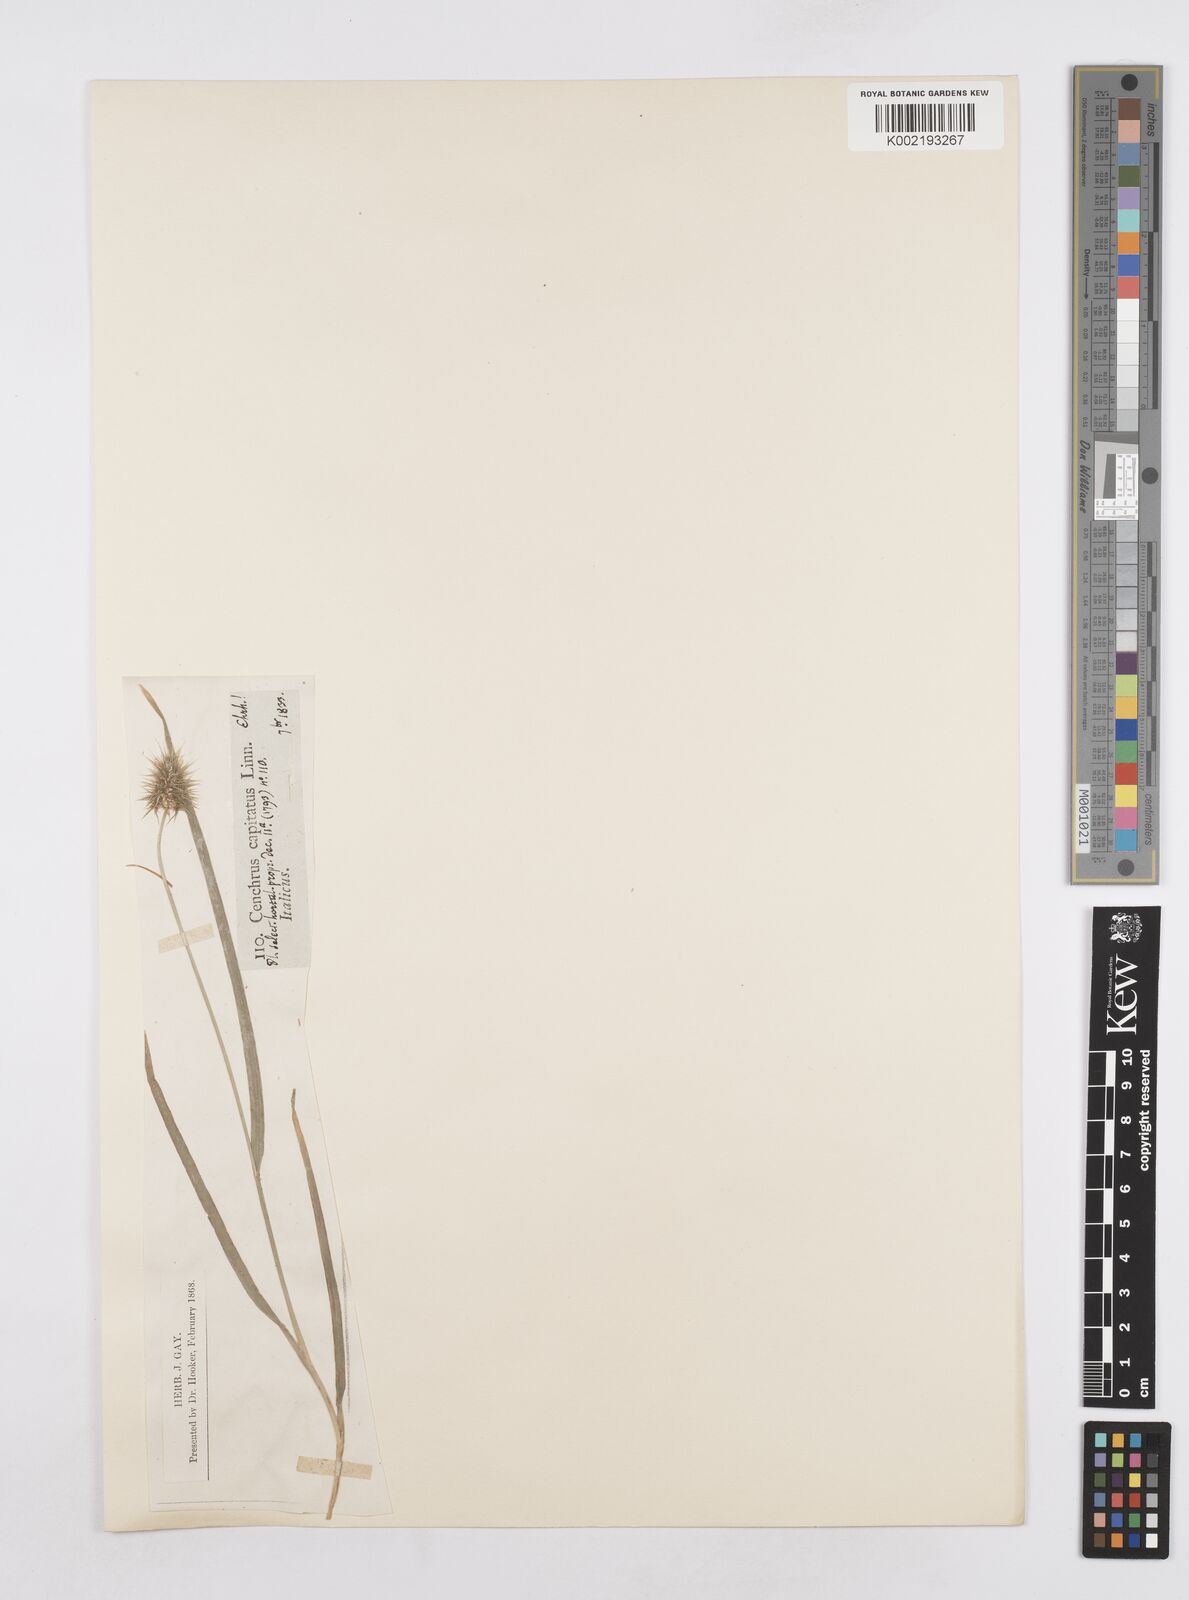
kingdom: Plantae
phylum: Tracheophyta
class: Liliopsida
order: Poales
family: Poaceae
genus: Echinaria
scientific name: Echinaria capitata
